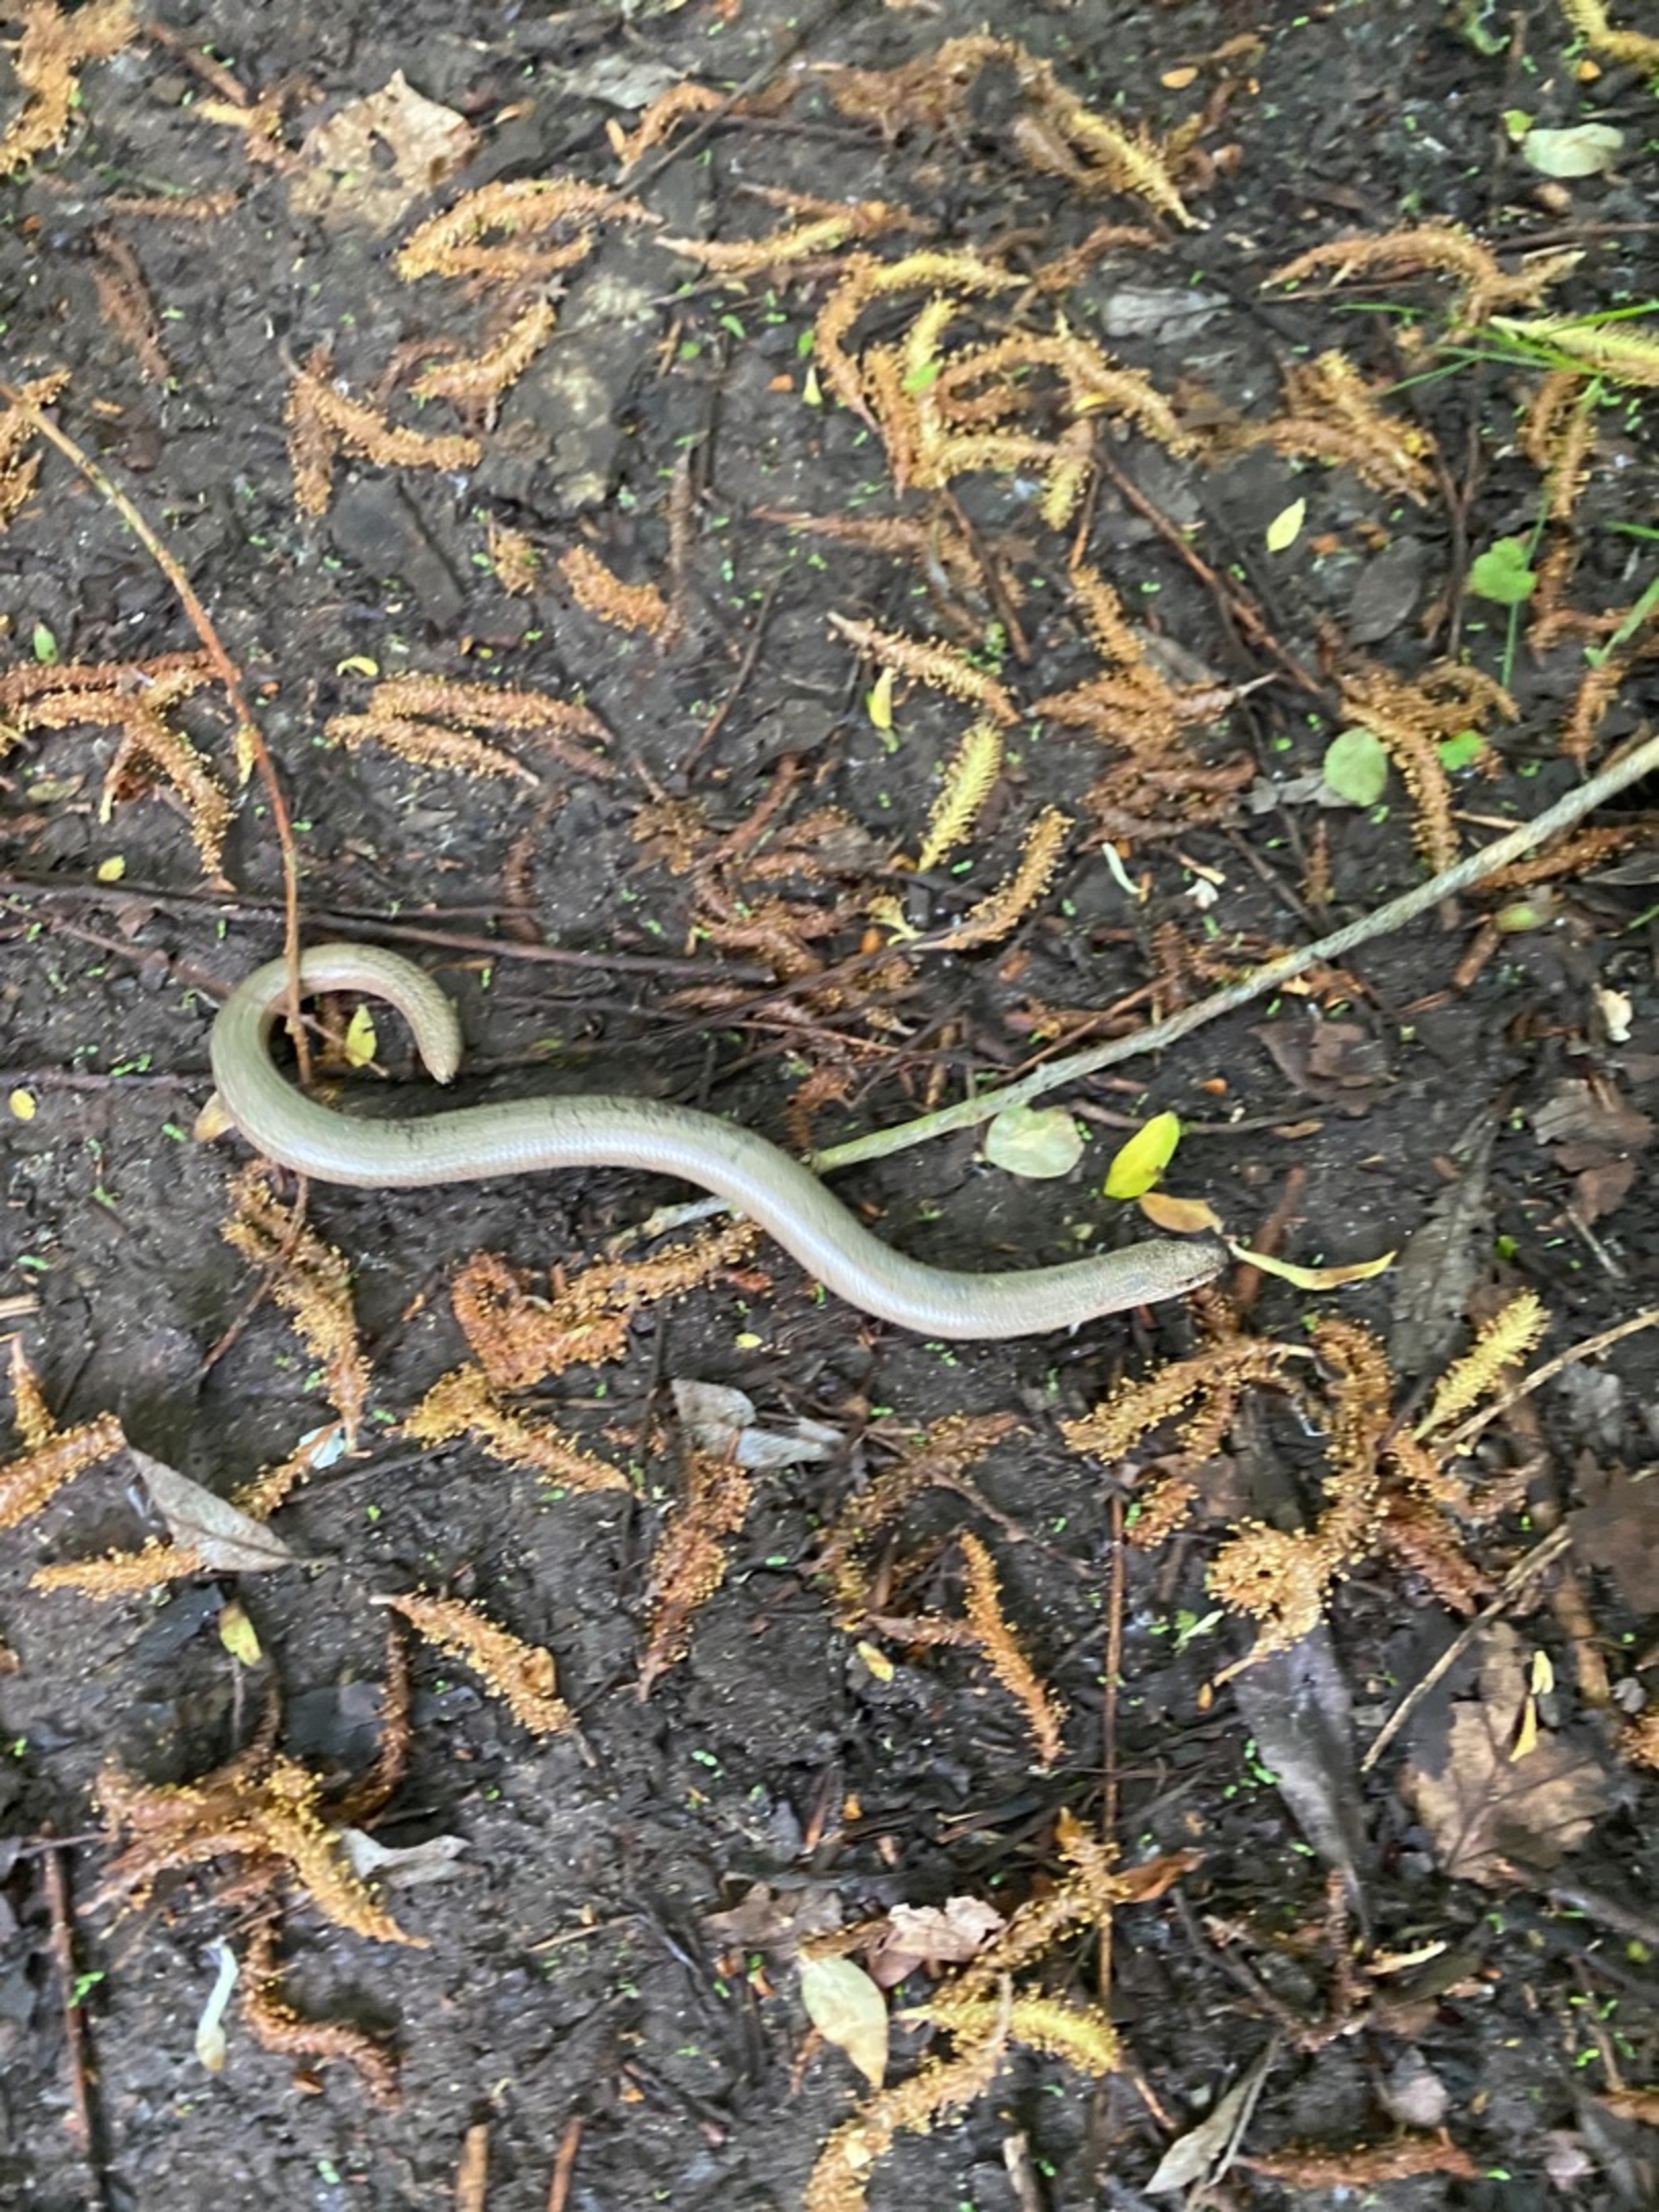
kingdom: Animalia
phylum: Chordata
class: Squamata
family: Anguidae
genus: Anguis
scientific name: Anguis fragilis
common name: Stålorm
